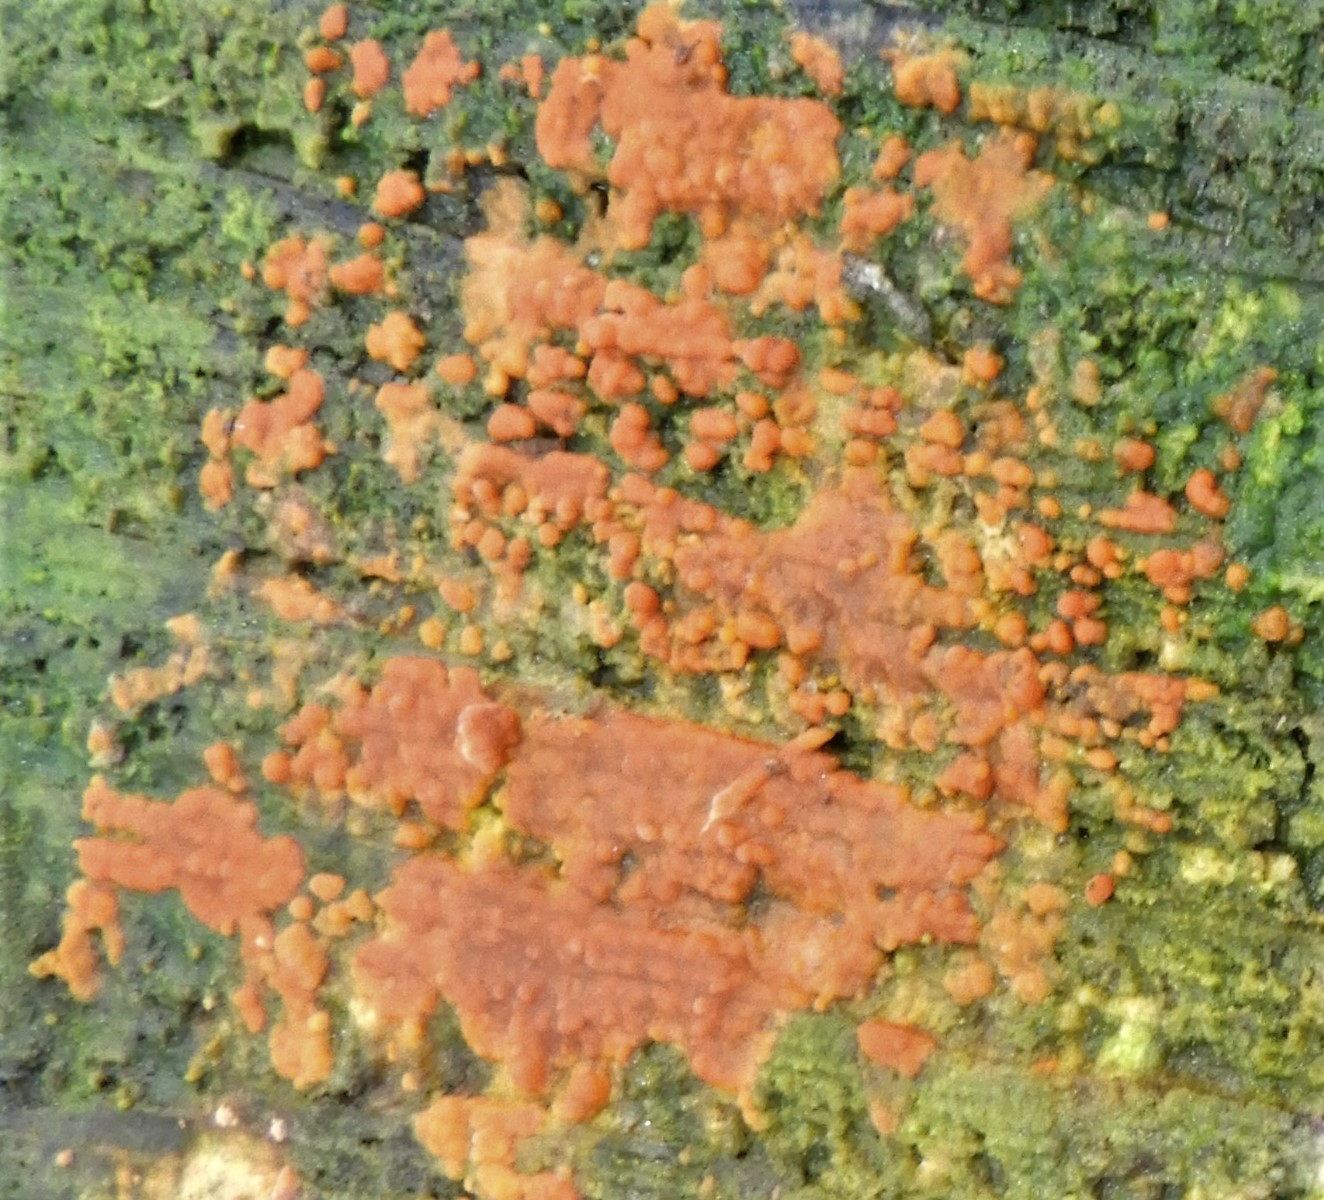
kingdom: Fungi
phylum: Basidiomycota
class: Agaricomycetes
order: Russulales
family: Peniophoraceae
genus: Peniophora
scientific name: Peniophora incarnata
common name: laksefarvet voksskind
